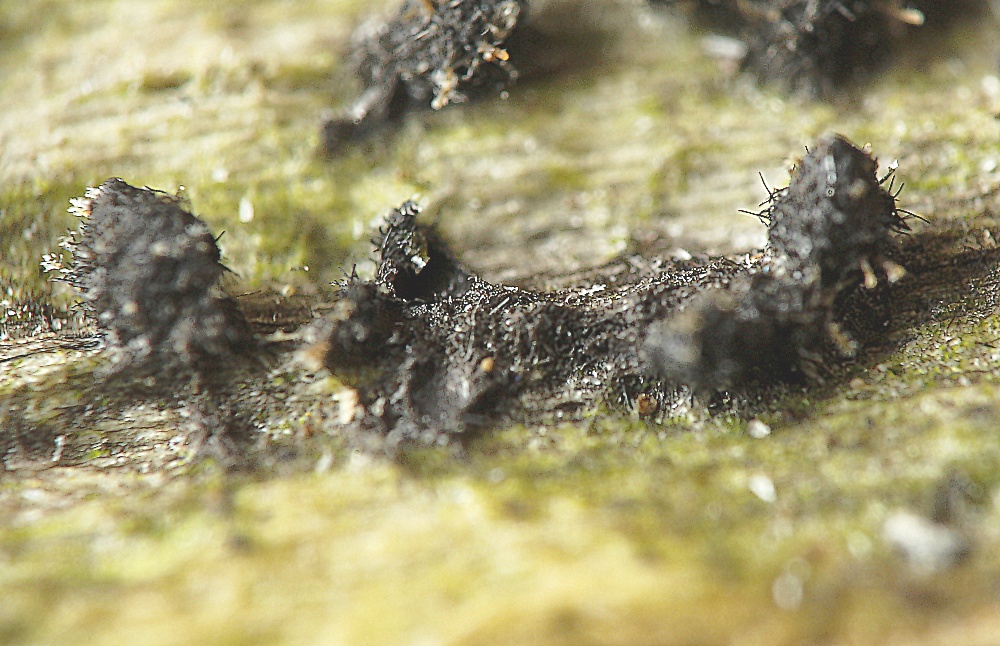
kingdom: Fungi
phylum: Ascomycota
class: Sordariomycetes
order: Sordariales
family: Lasiosphaeridaceae
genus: Lasiosphaeris
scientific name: Lasiosphaeris hirsuta
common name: sorthåret kernesvamp
